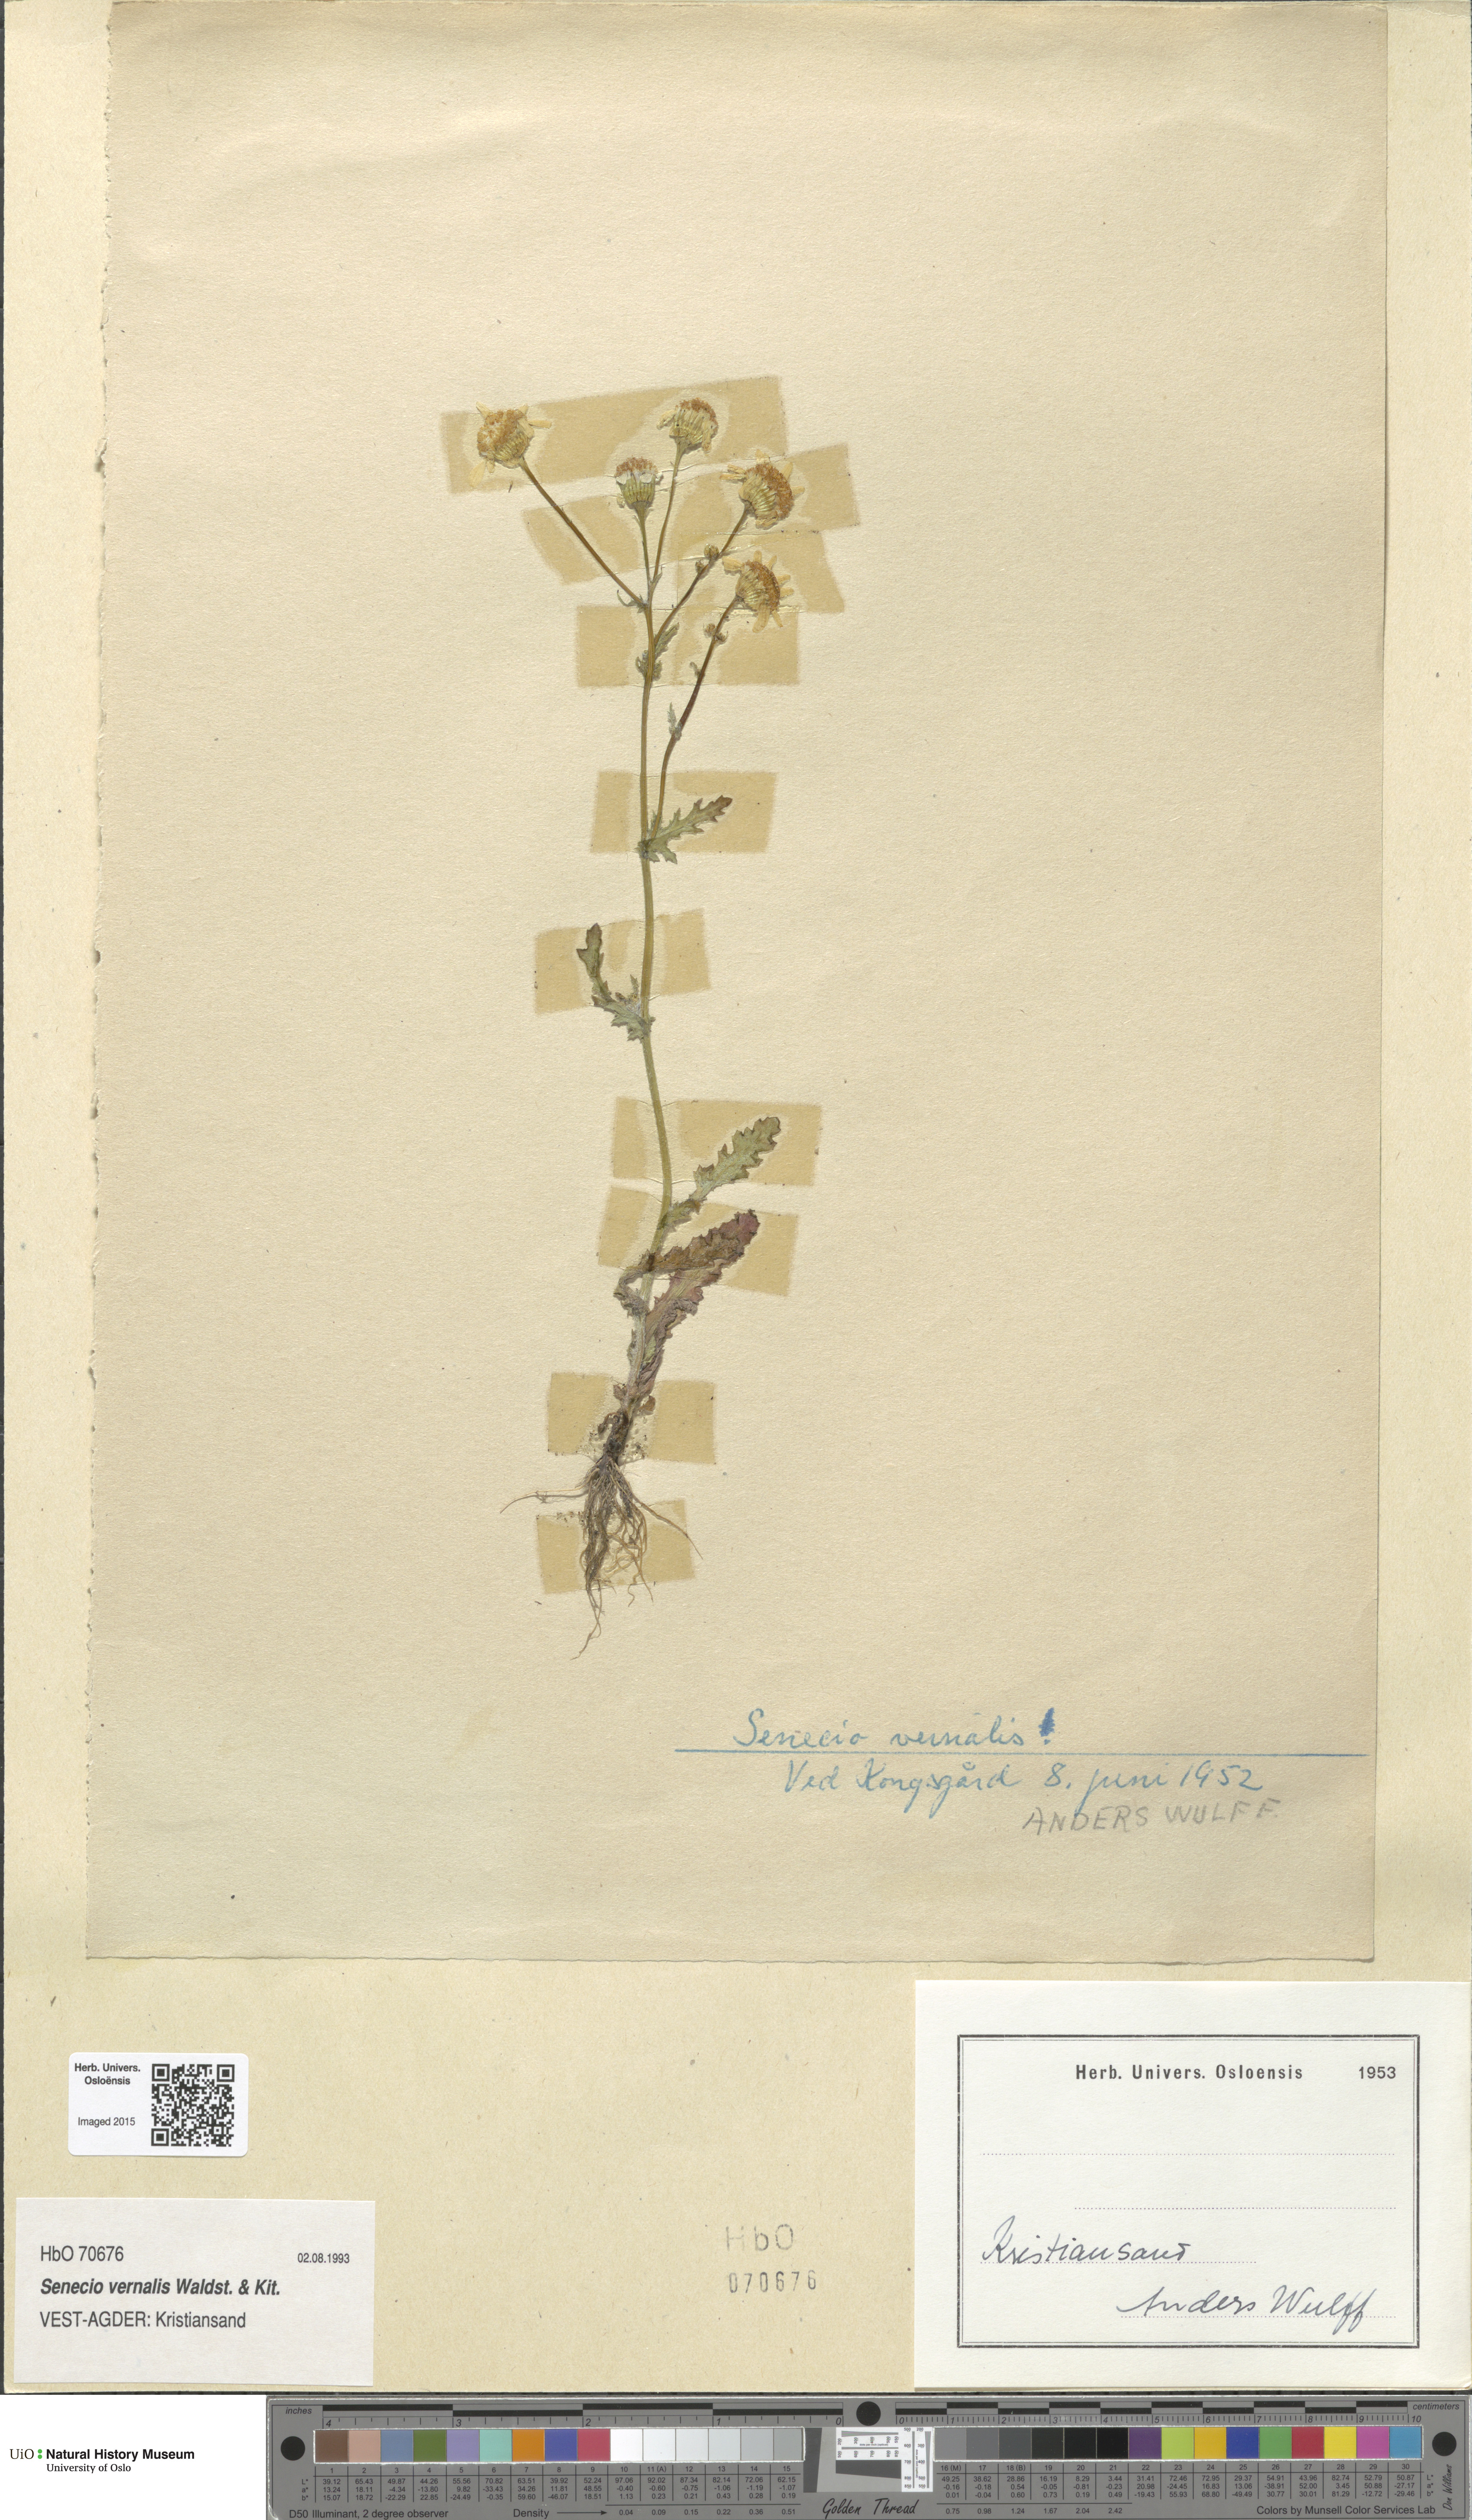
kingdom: Plantae
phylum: Tracheophyta
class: Magnoliopsida
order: Asterales
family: Asteraceae
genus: Senecio
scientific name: Senecio vernalis
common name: Eastern groundsel
